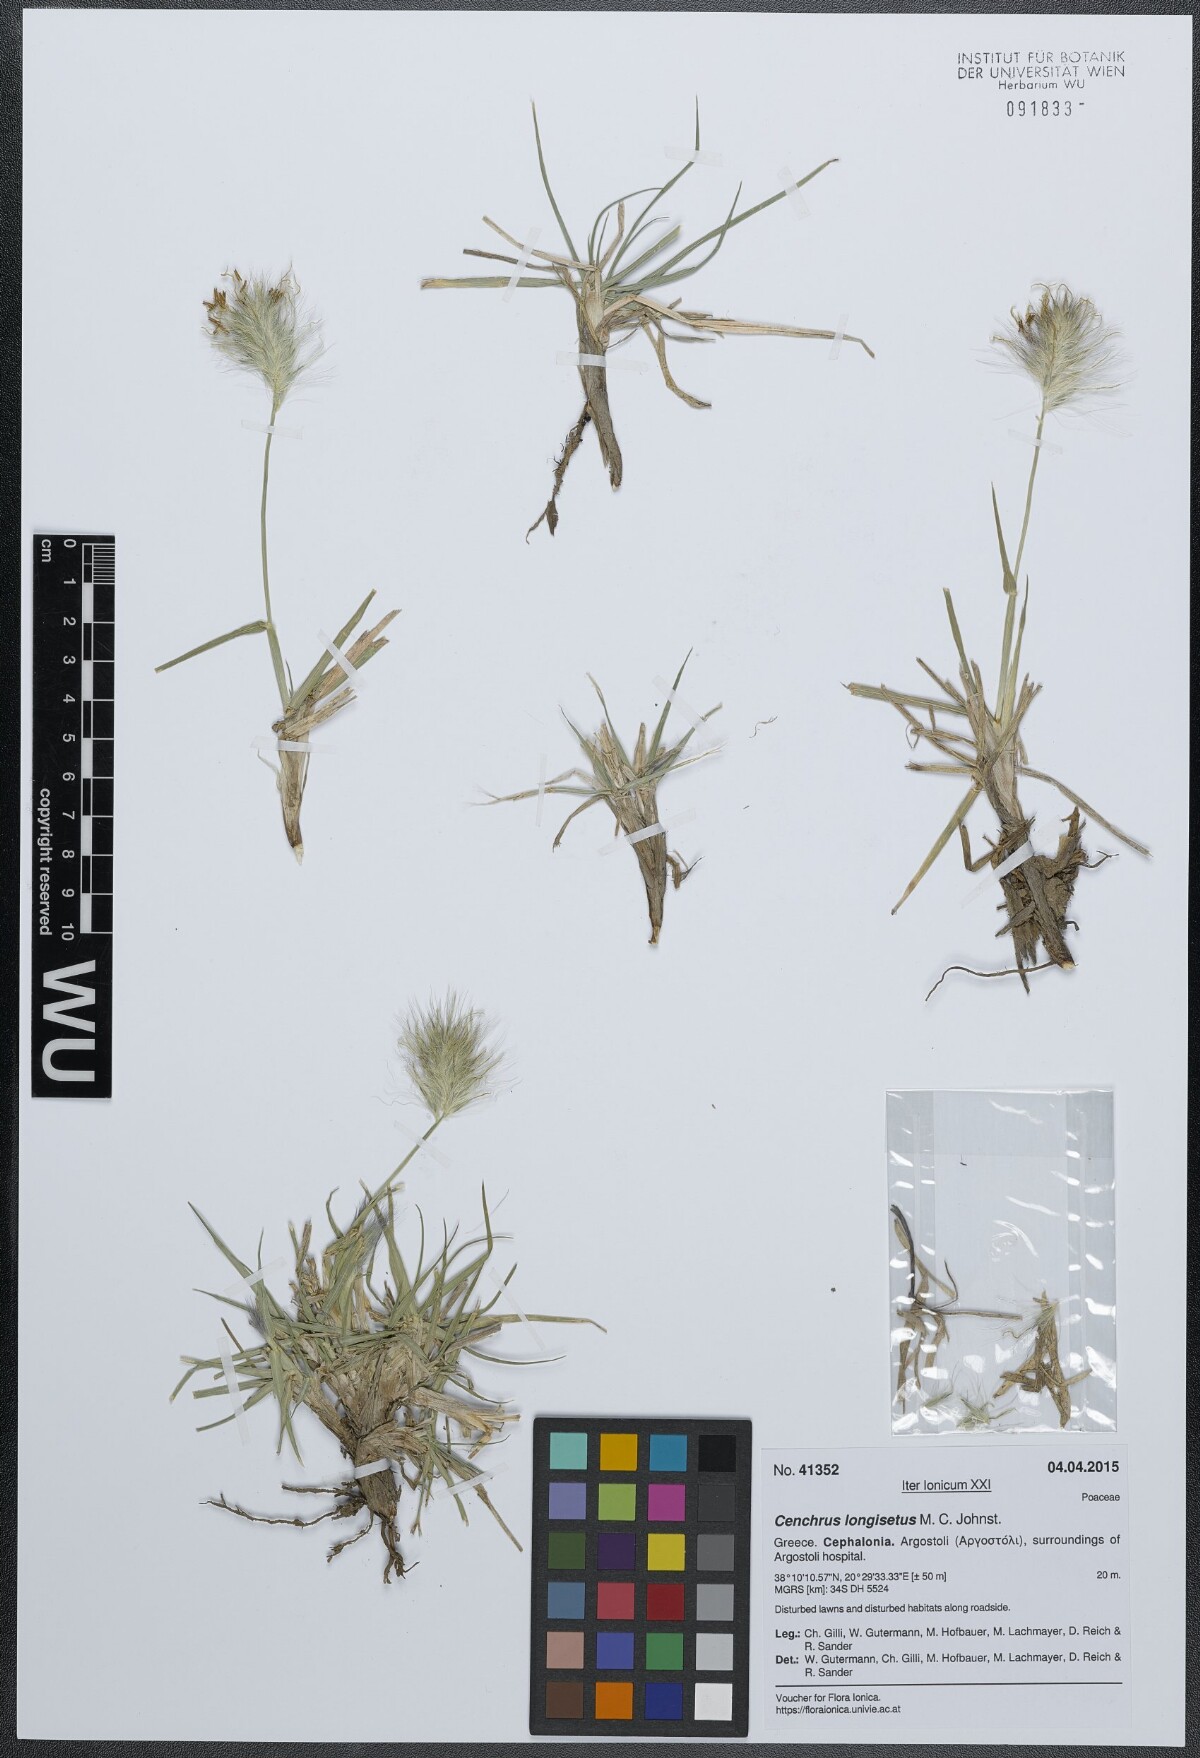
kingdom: Plantae
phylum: Tracheophyta
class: Liliopsida
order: Poales
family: Poaceae
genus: Cenchrus
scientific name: Cenchrus longisetus
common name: Feathertop
